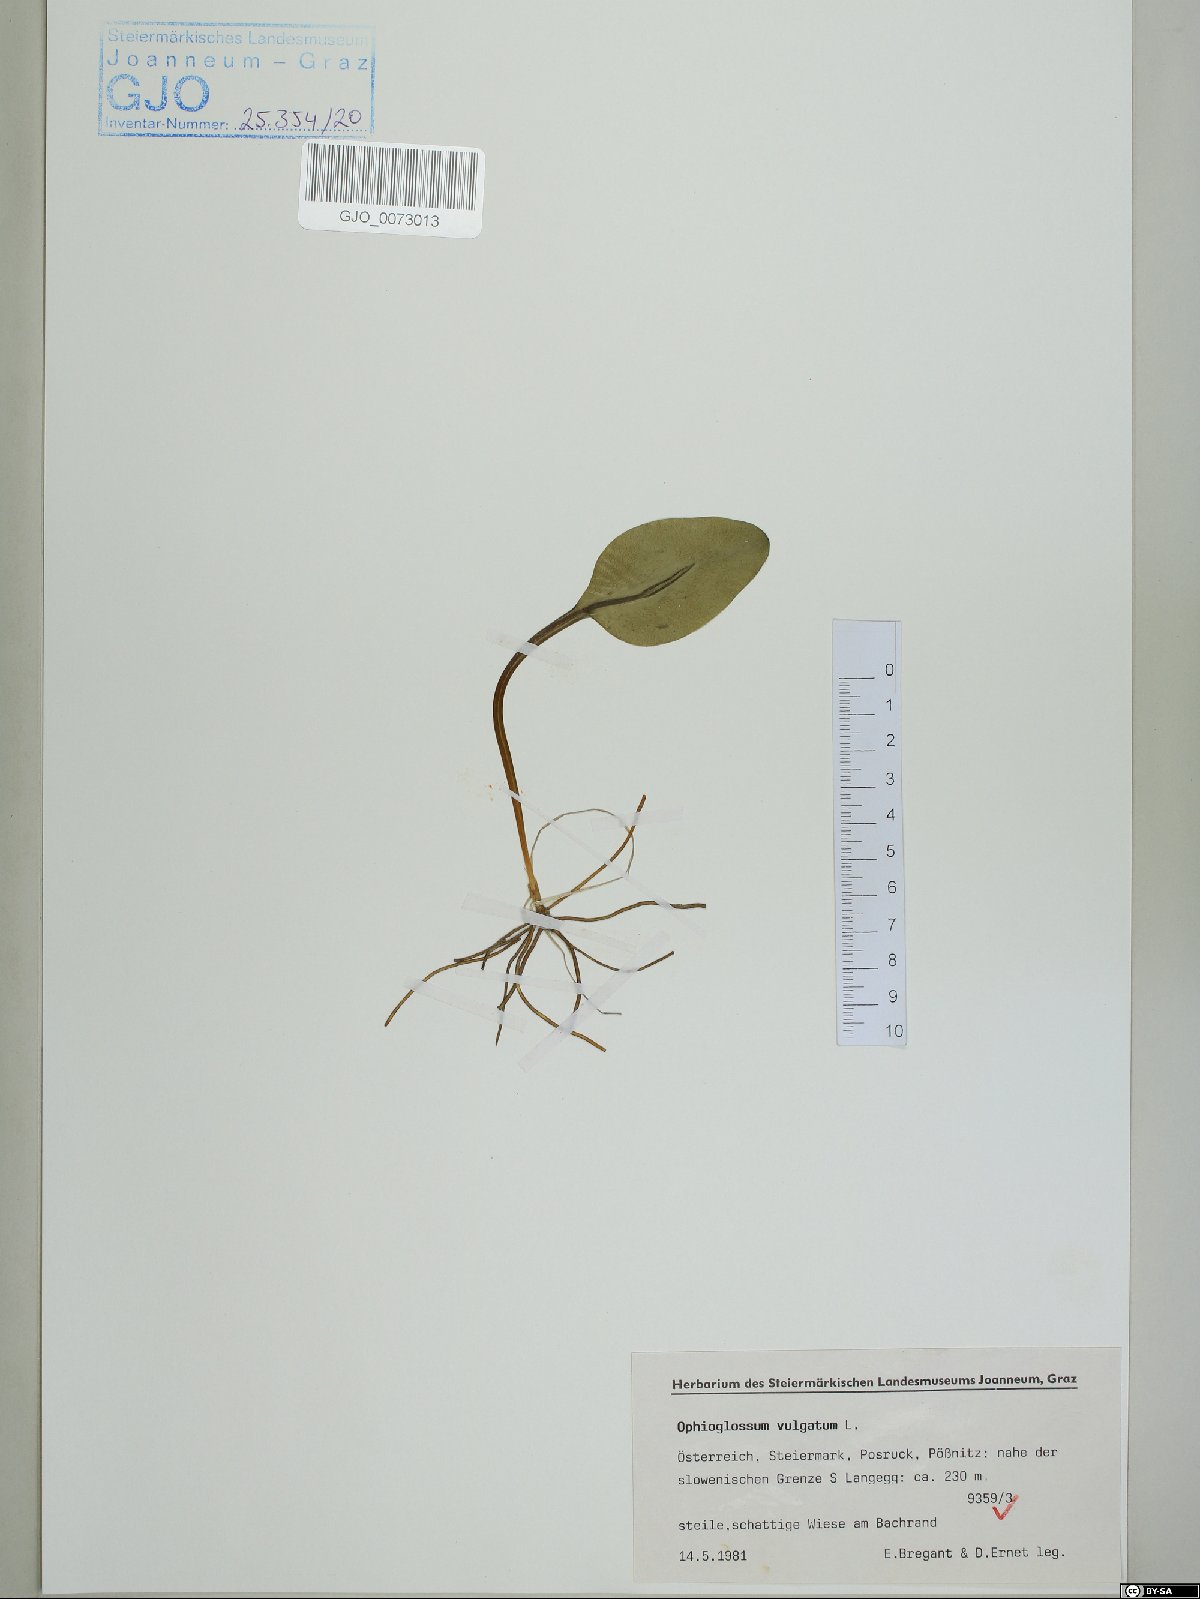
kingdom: Plantae
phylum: Tracheophyta
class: Polypodiopsida
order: Ophioglossales
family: Ophioglossaceae
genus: Ophioglossum
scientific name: Ophioglossum vulgatum
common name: Adder's-tongue
